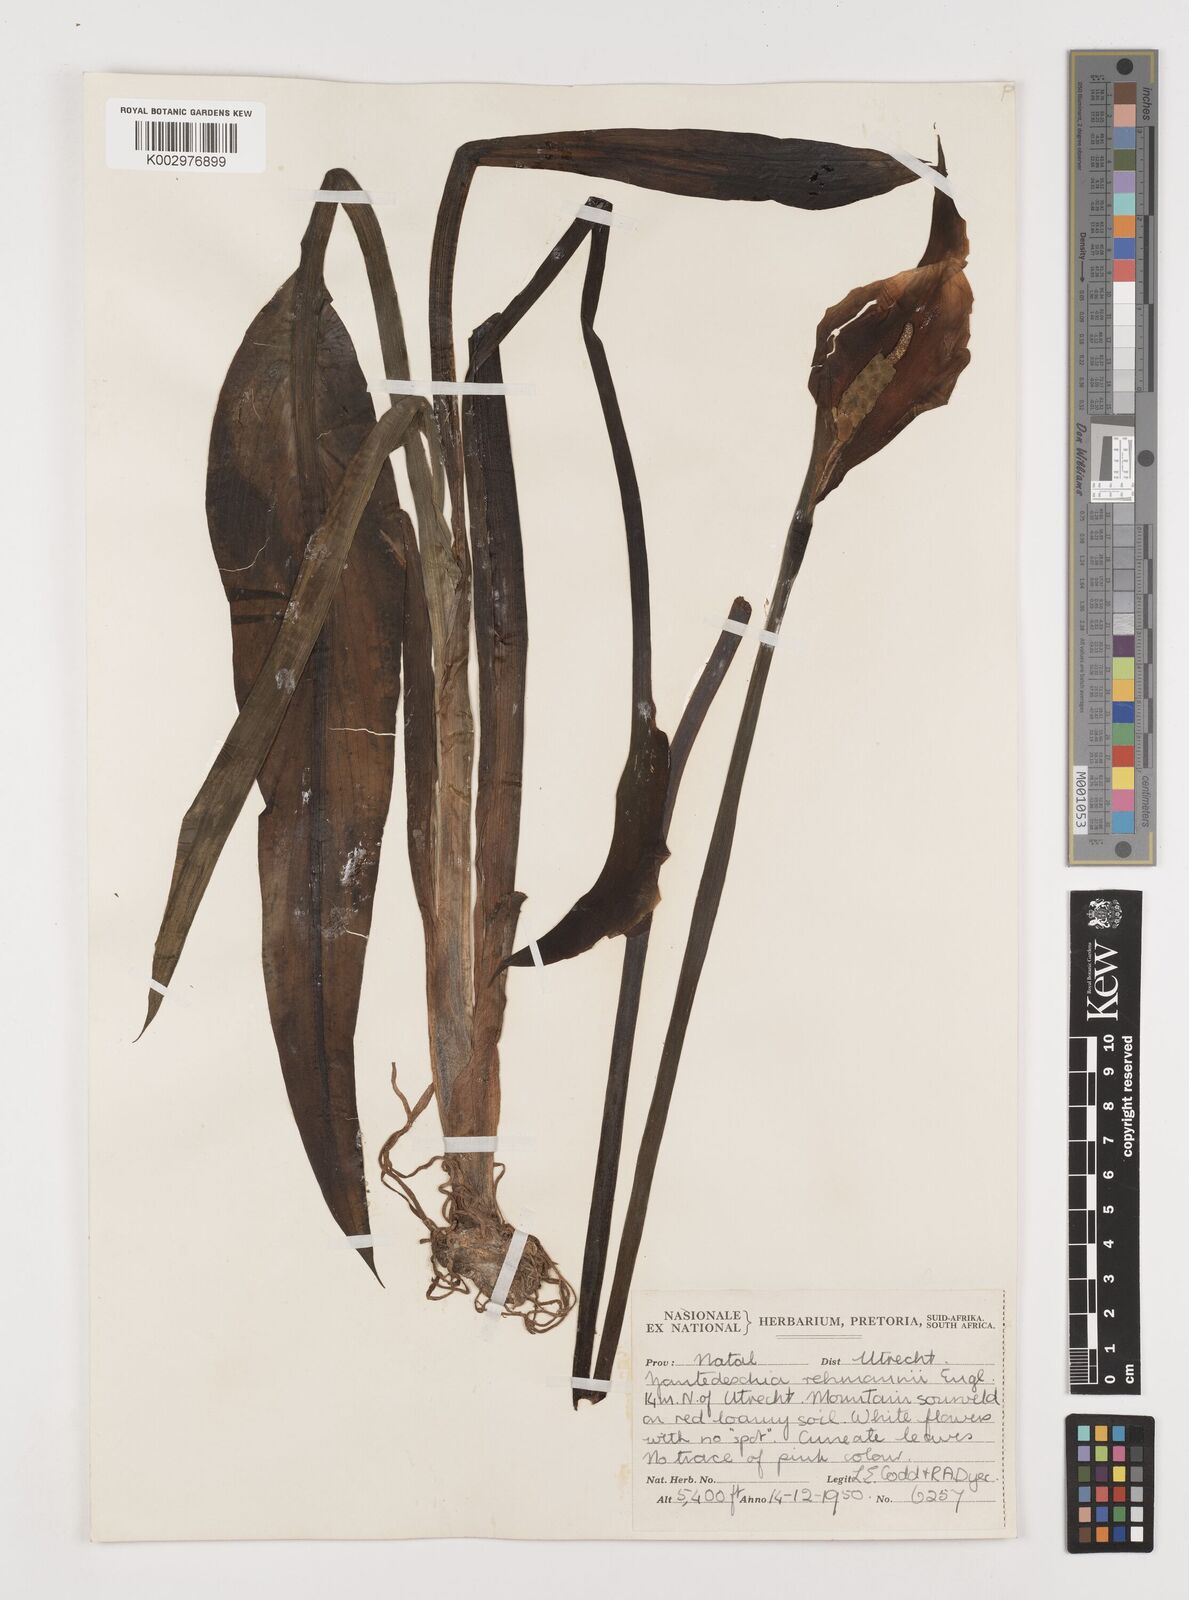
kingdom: Plantae
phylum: Tracheophyta
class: Liliopsida
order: Alismatales
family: Araceae
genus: Zantedeschia
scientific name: Zantedeschia rehmannii
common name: Red calla
